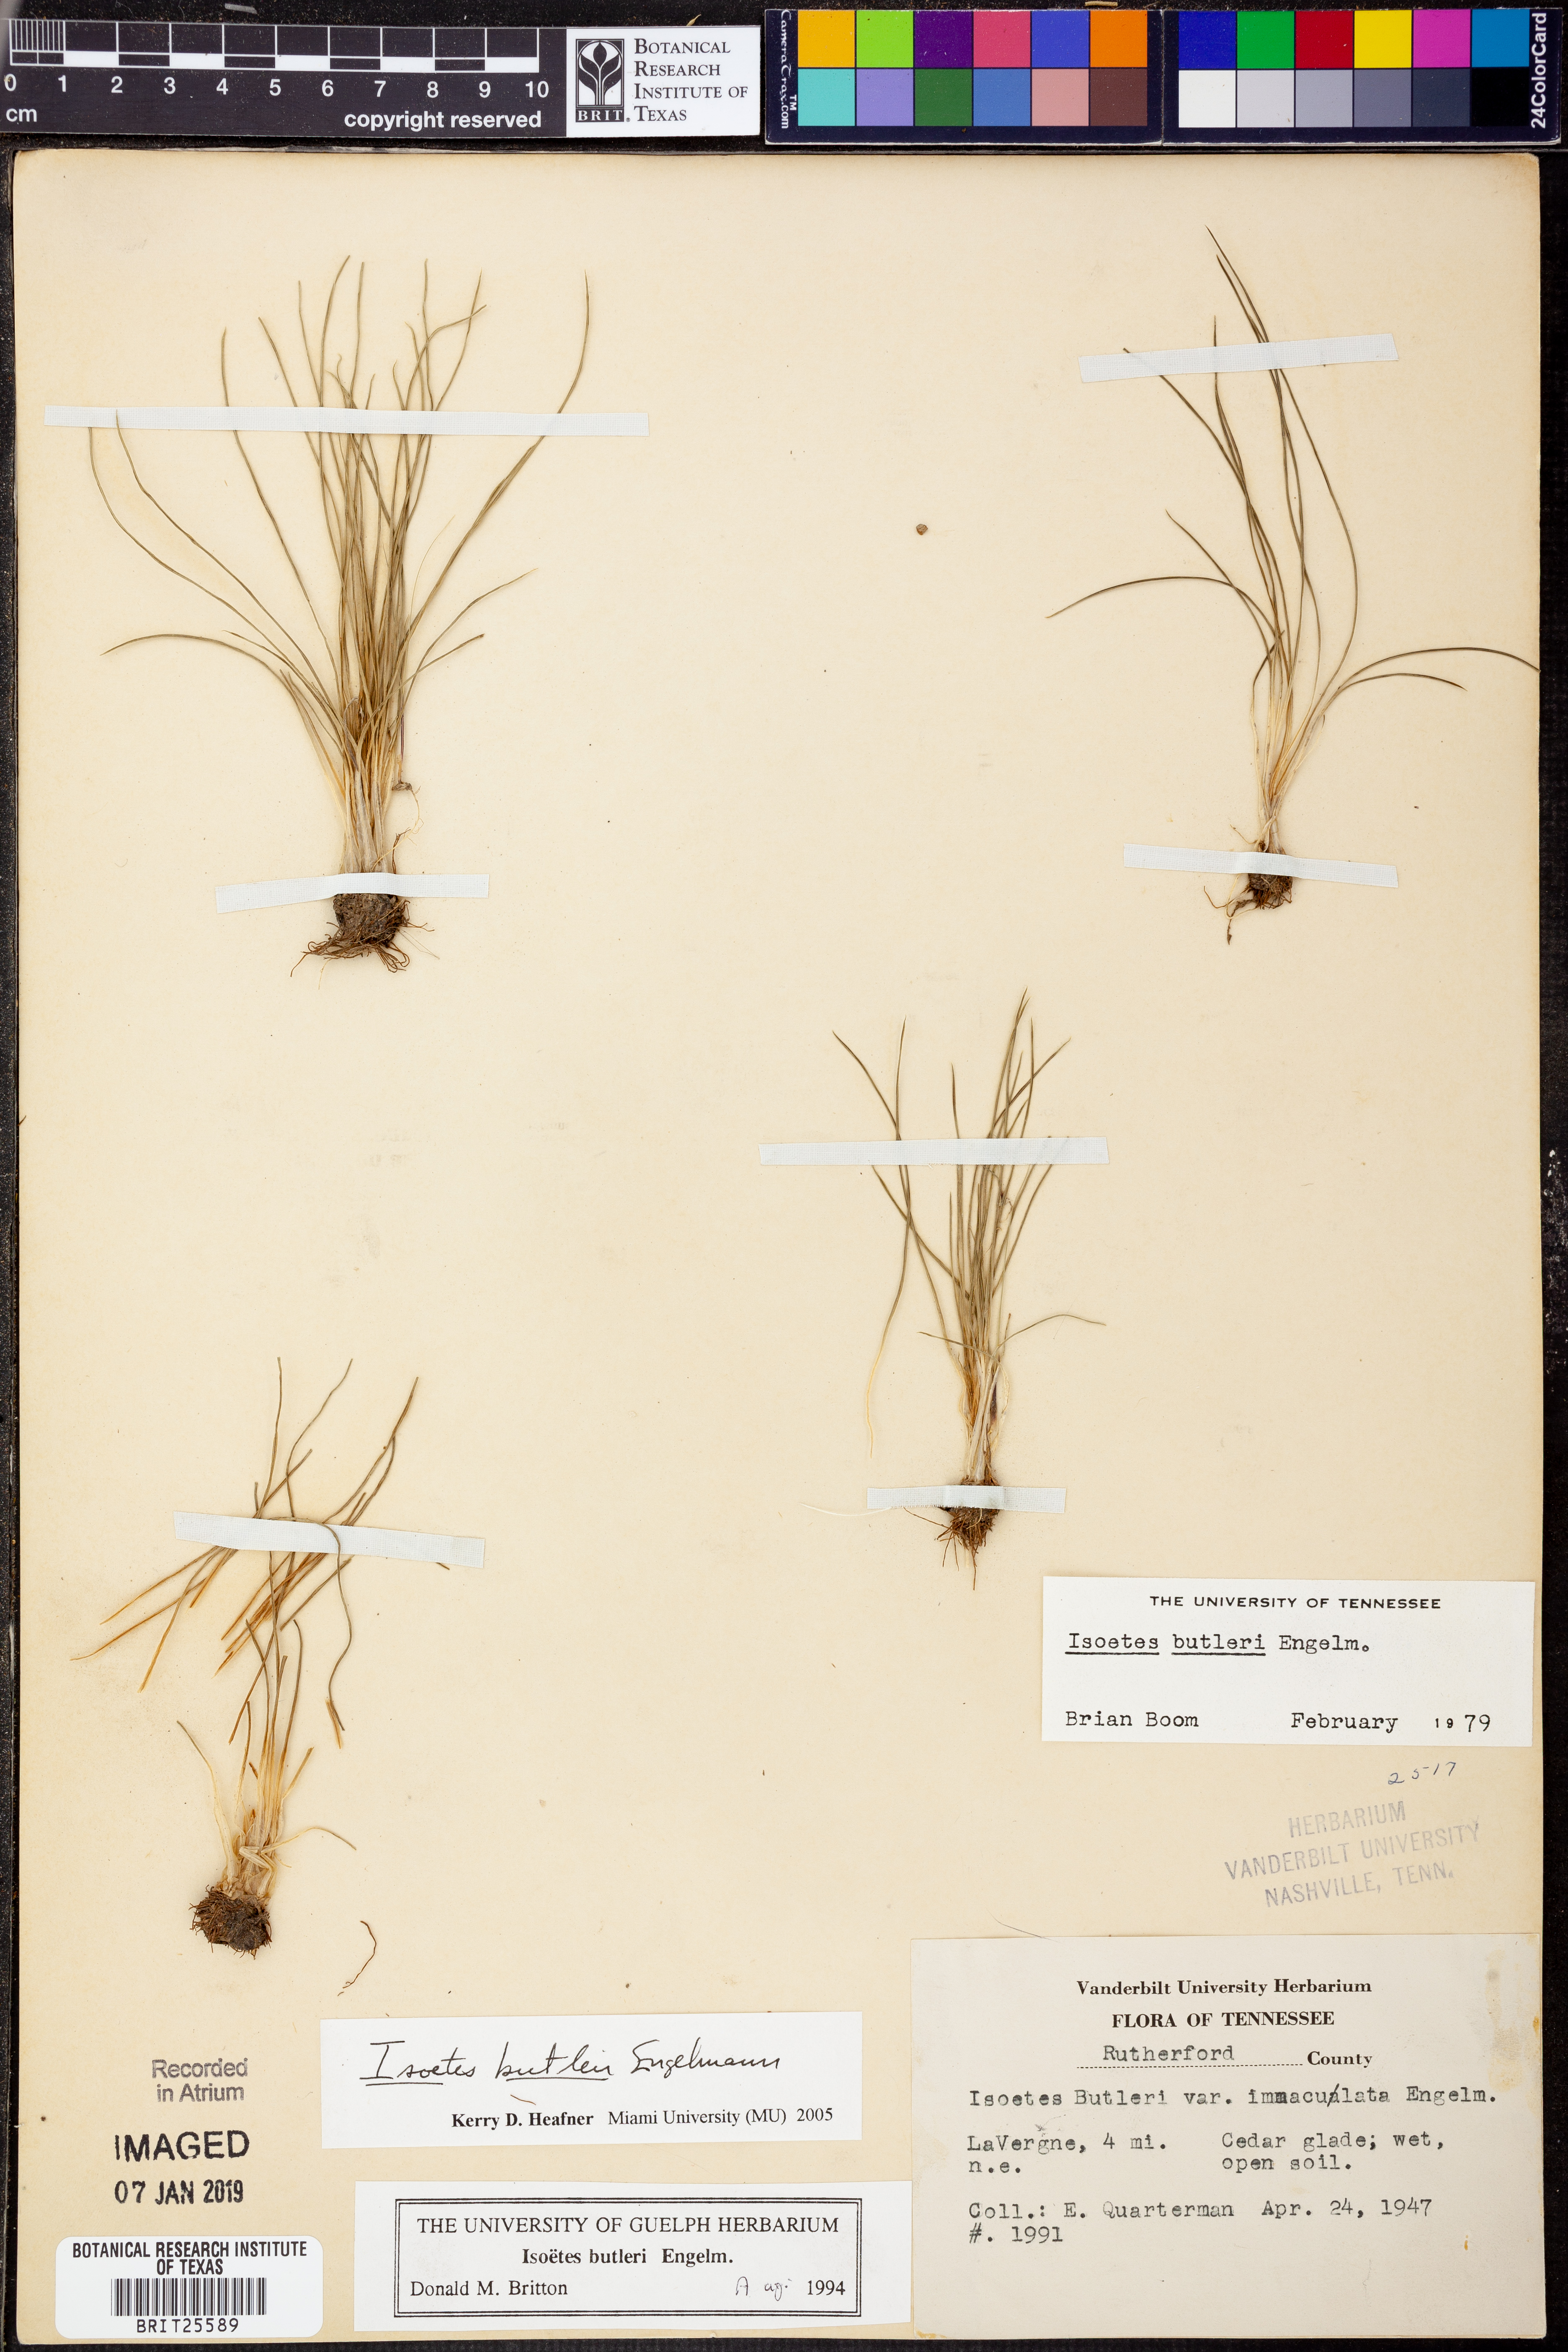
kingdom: Plantae
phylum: Tracheophyta
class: Lycopodiopsida
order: Isoetales
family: Isoetaceae
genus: Isoetes
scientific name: Isoetes butleri
